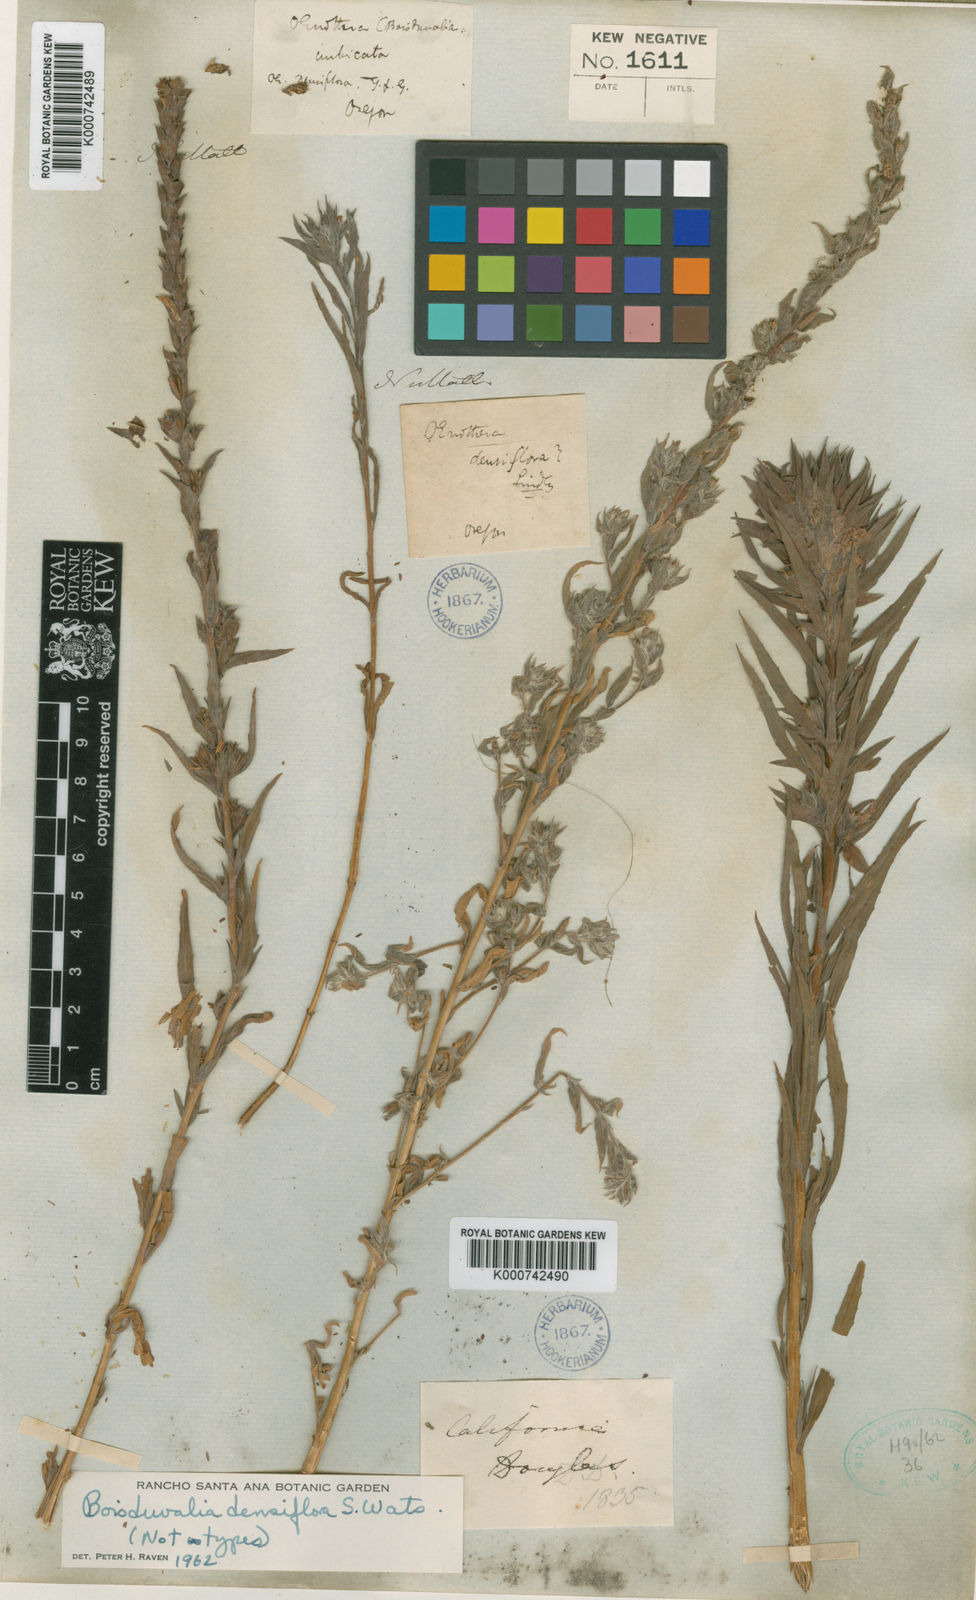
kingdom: Animalia
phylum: Arthropoda
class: Insecta
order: Diptera
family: Platystomatidae
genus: Boisduvalia
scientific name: Boisduvalia
